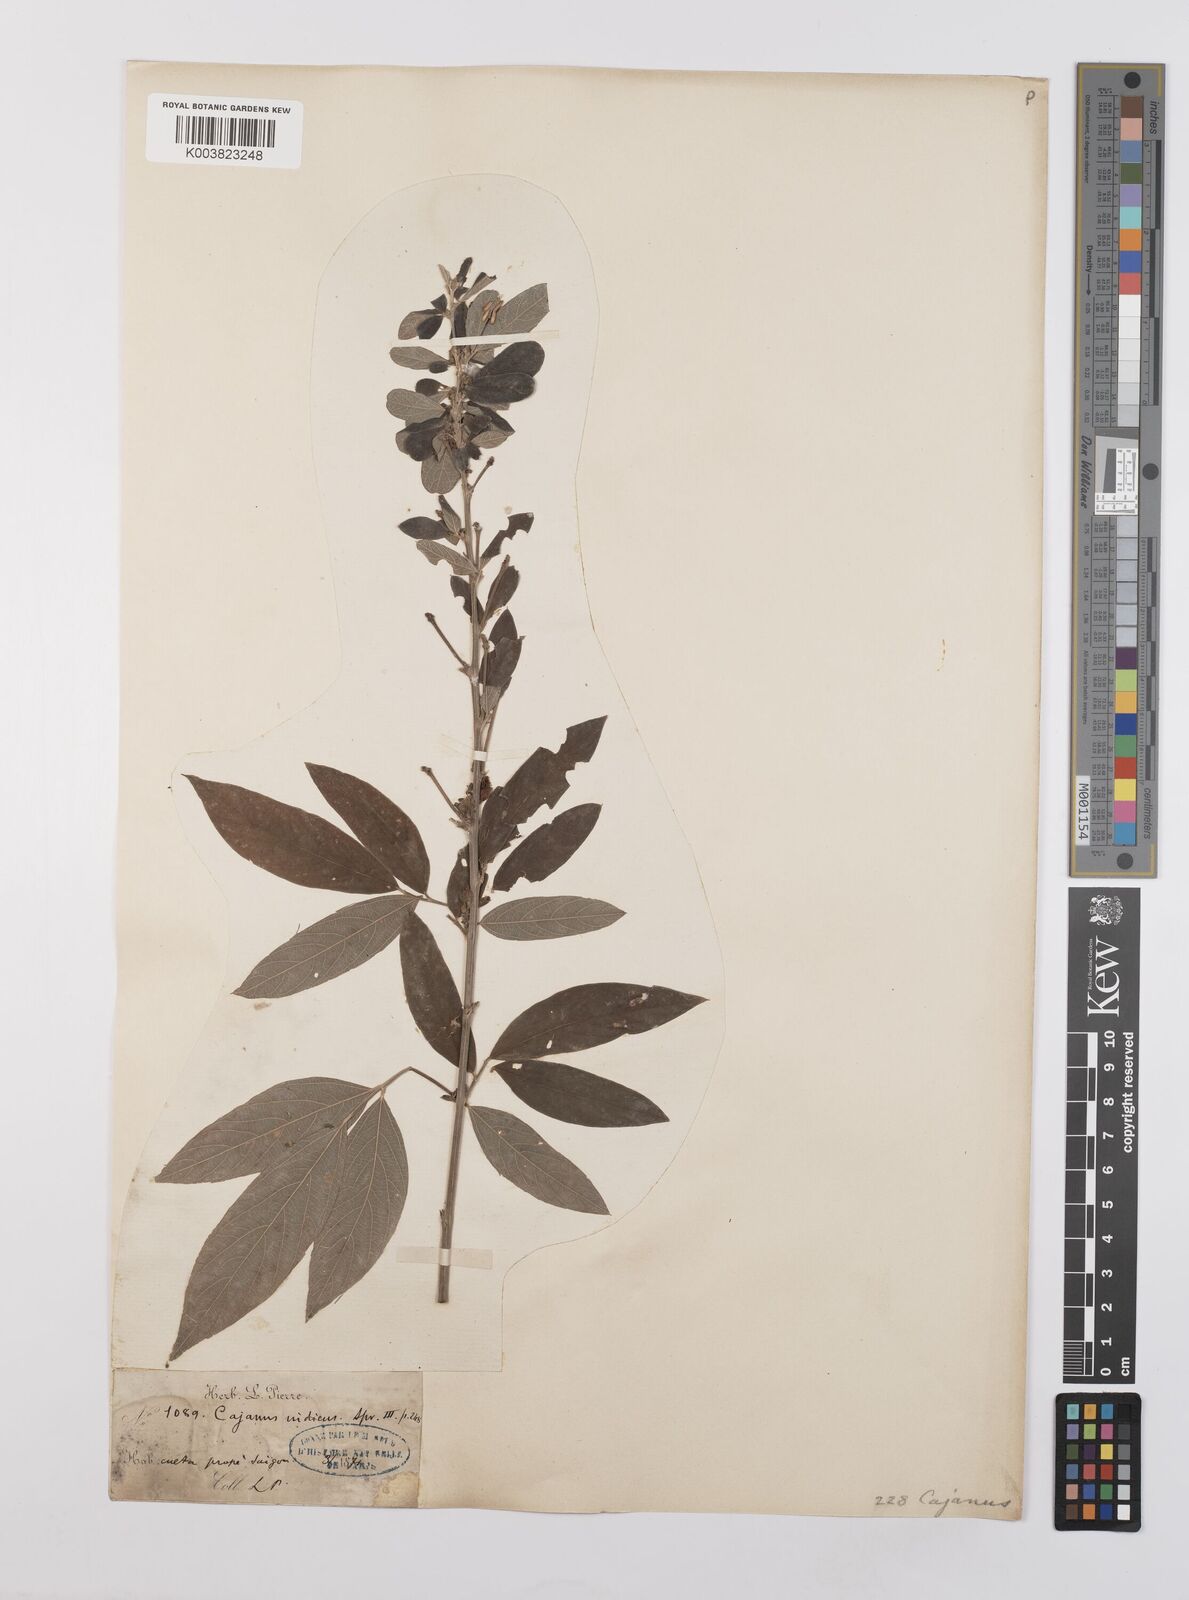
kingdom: Plantae
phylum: Tracheophyta
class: Magnoliopsida
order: Fabales
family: Fabaceae
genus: Cajanus
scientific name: Cajanus cajan
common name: Pigeonpea
